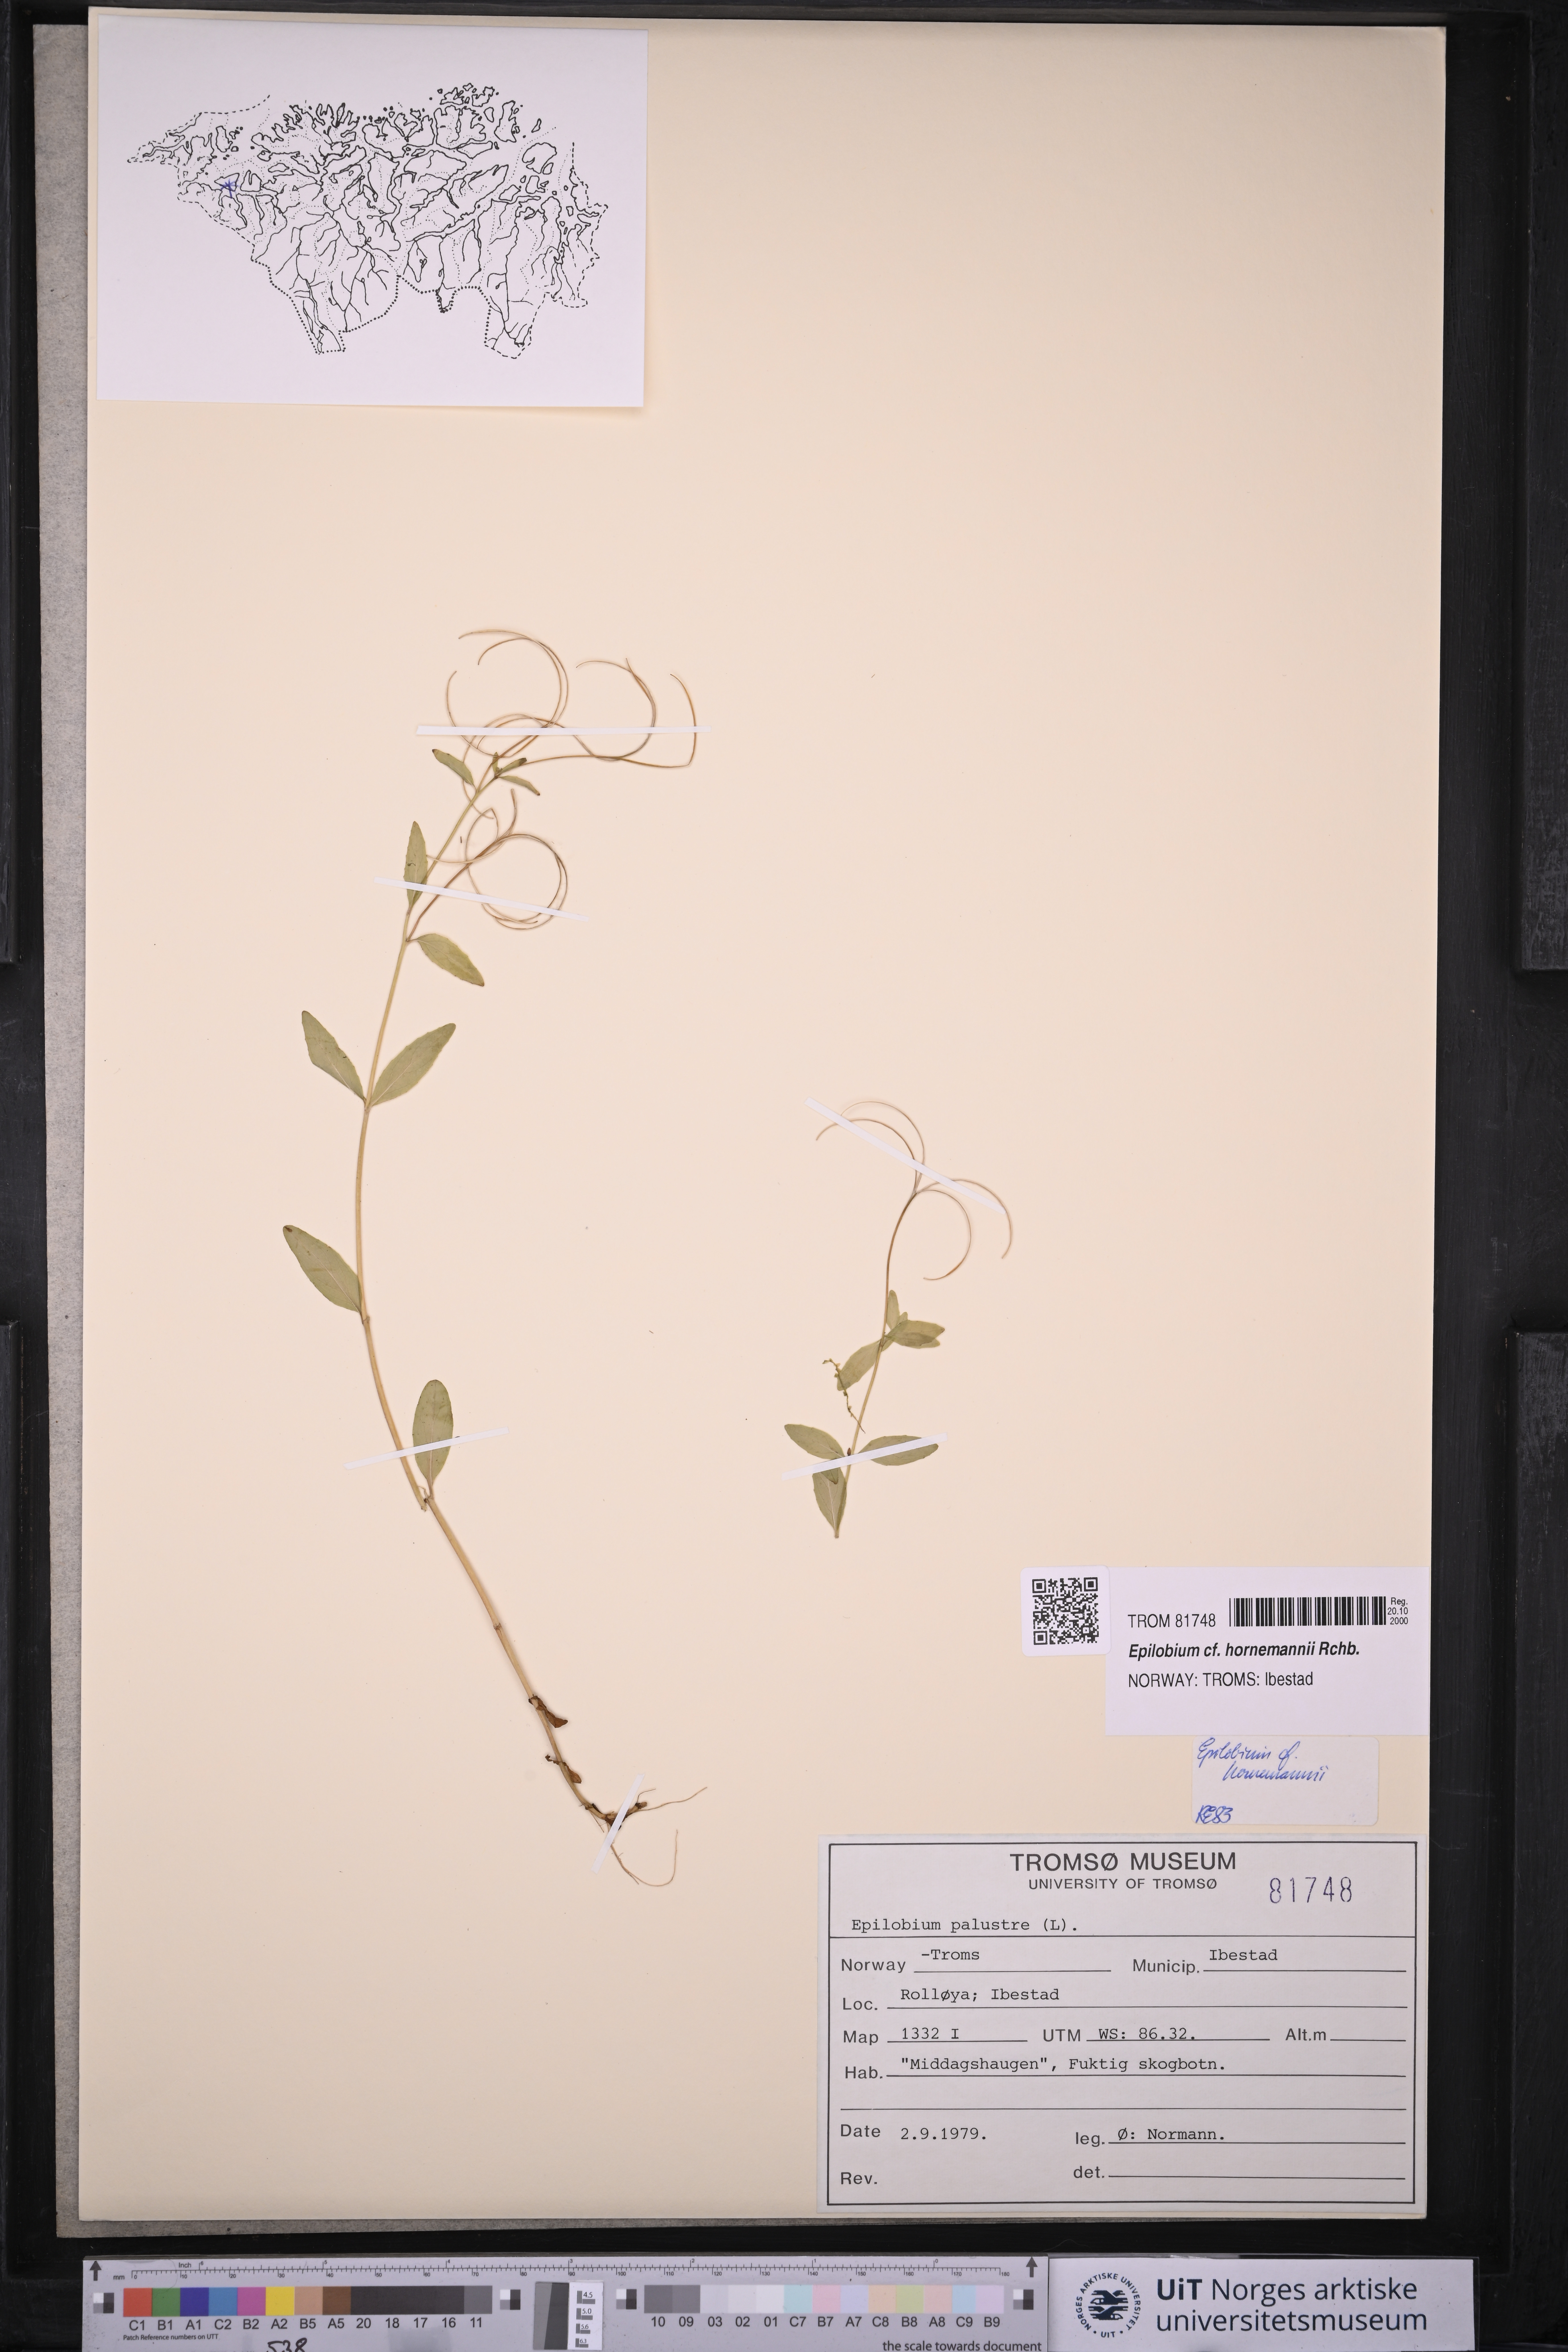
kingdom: Plantae
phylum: Tracheophyta
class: Magnoliopsida
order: Myrtales
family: Onagraceae
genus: Epilobium
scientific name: Epilobium hornemannii
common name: Hornemann's willowherb
